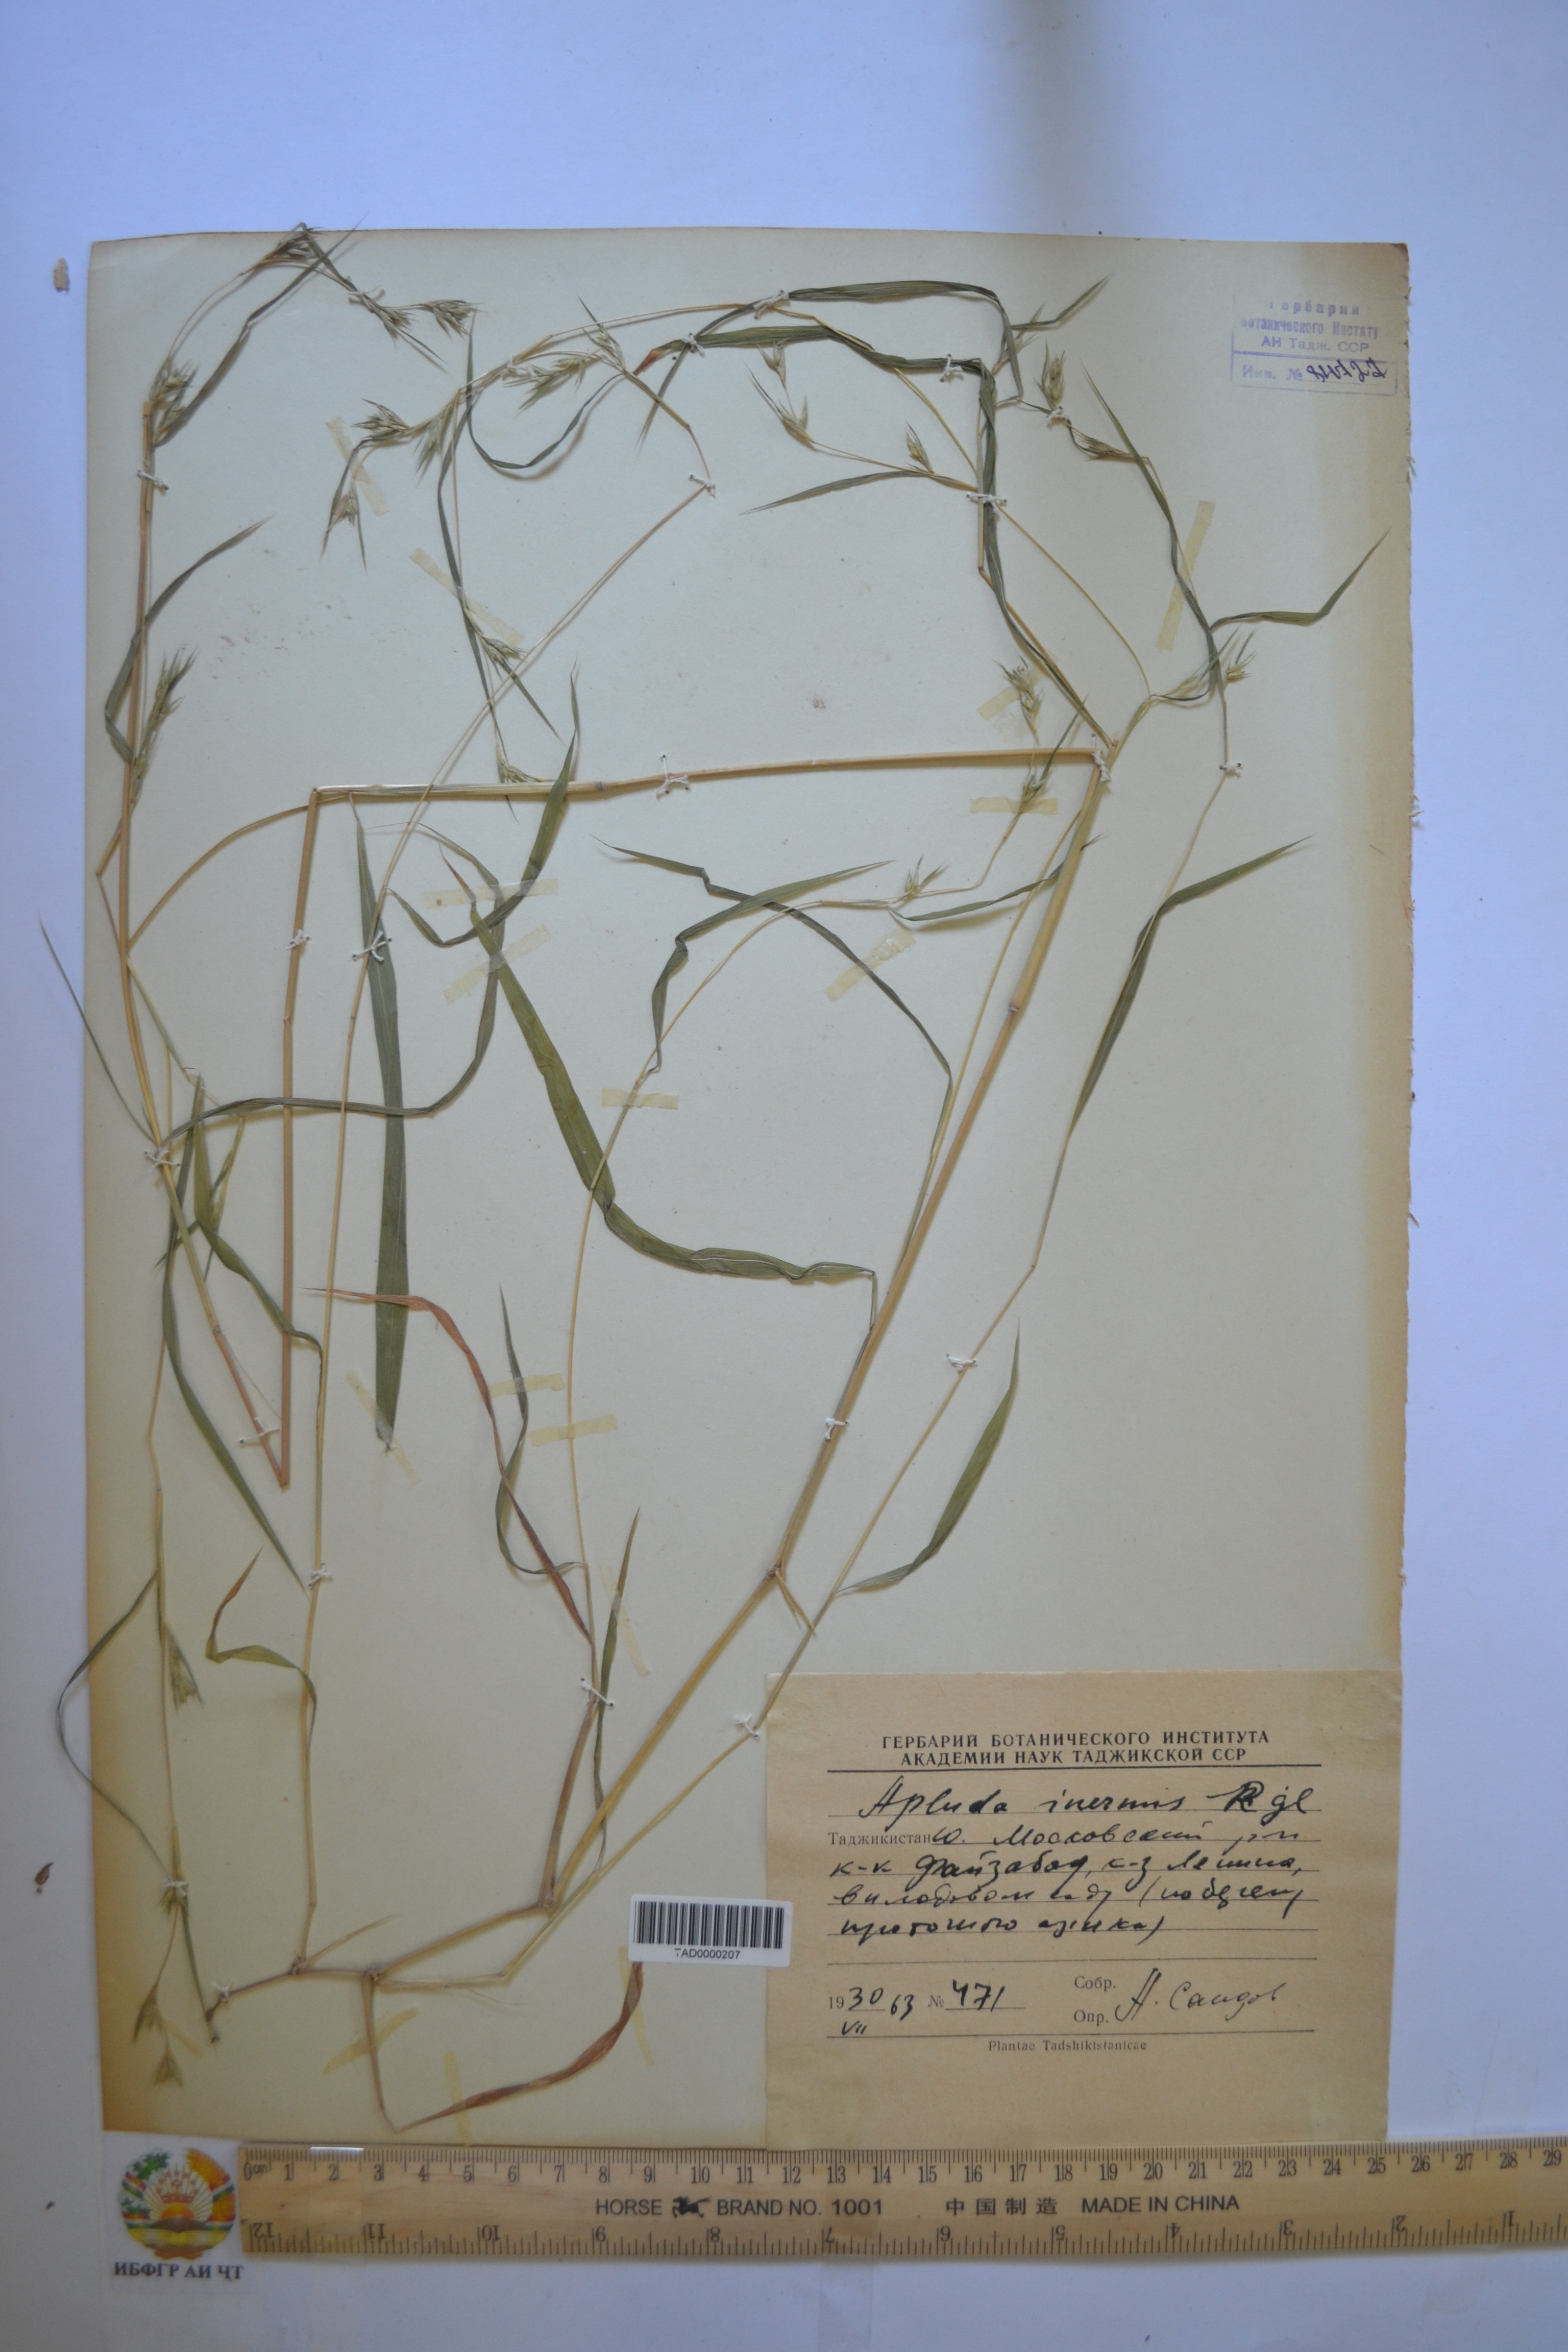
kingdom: Plantae
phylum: Tracheophyta
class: Liliopsida
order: Poales
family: Poaceae
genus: Apluda
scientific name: Apluda mutica
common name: Mauritian grass
